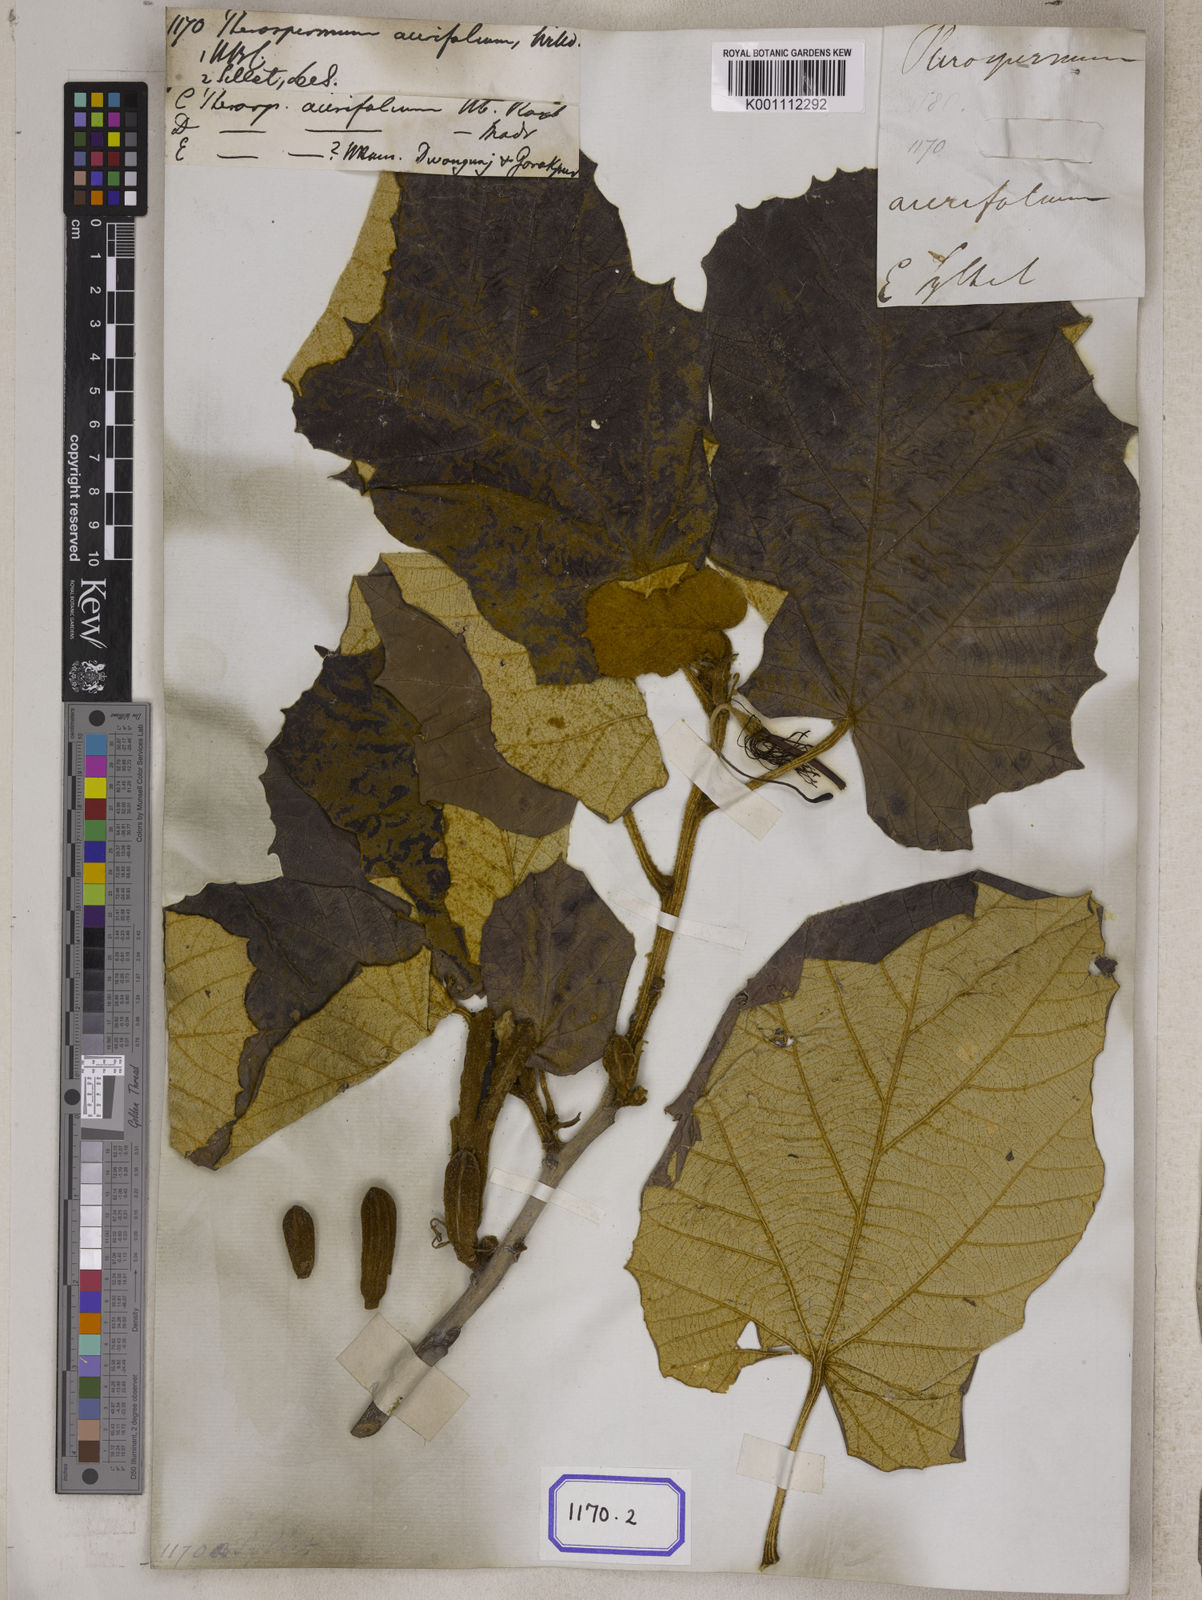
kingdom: Plantae
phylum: Tracheophyta
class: Magnoliopsida
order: Malvales
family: Malvaceae
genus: Pterospermum
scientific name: Pterospermum
